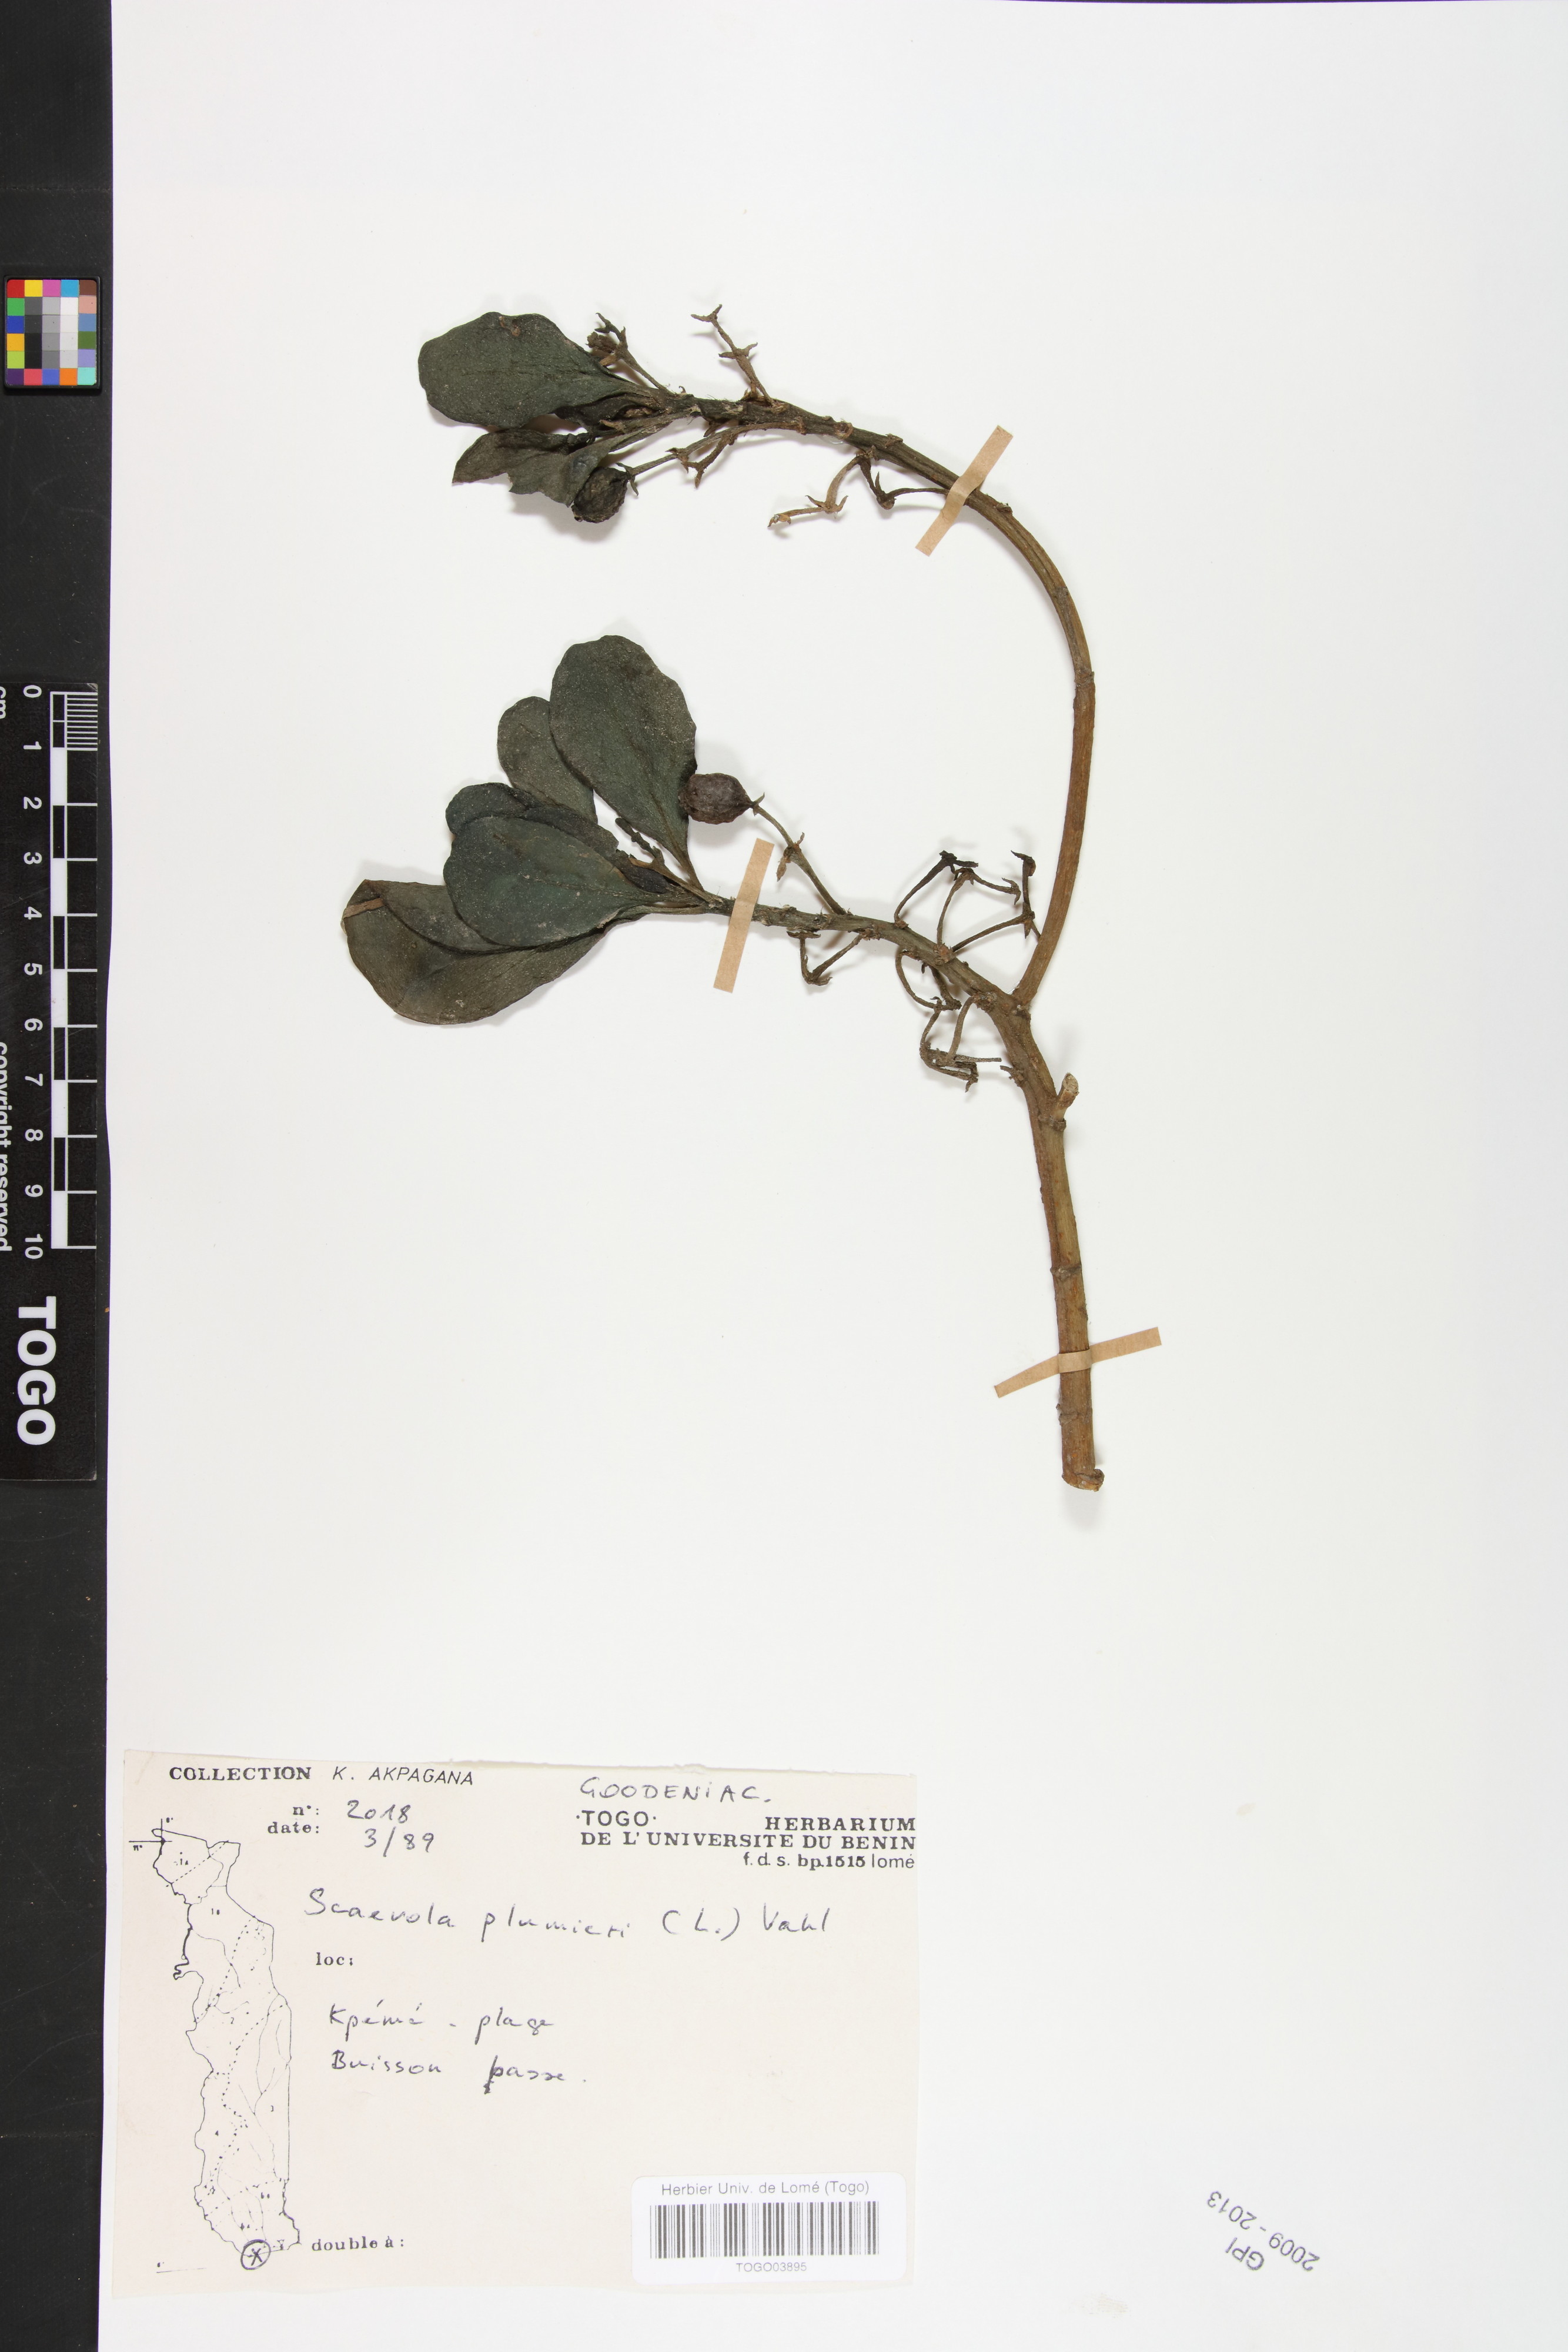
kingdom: Plantae
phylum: Tracheophyta
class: Magnoliopsida
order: Asterales
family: Goodeniaceae
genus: Scaevola
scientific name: Scaevola plumieri
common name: Gull feed
